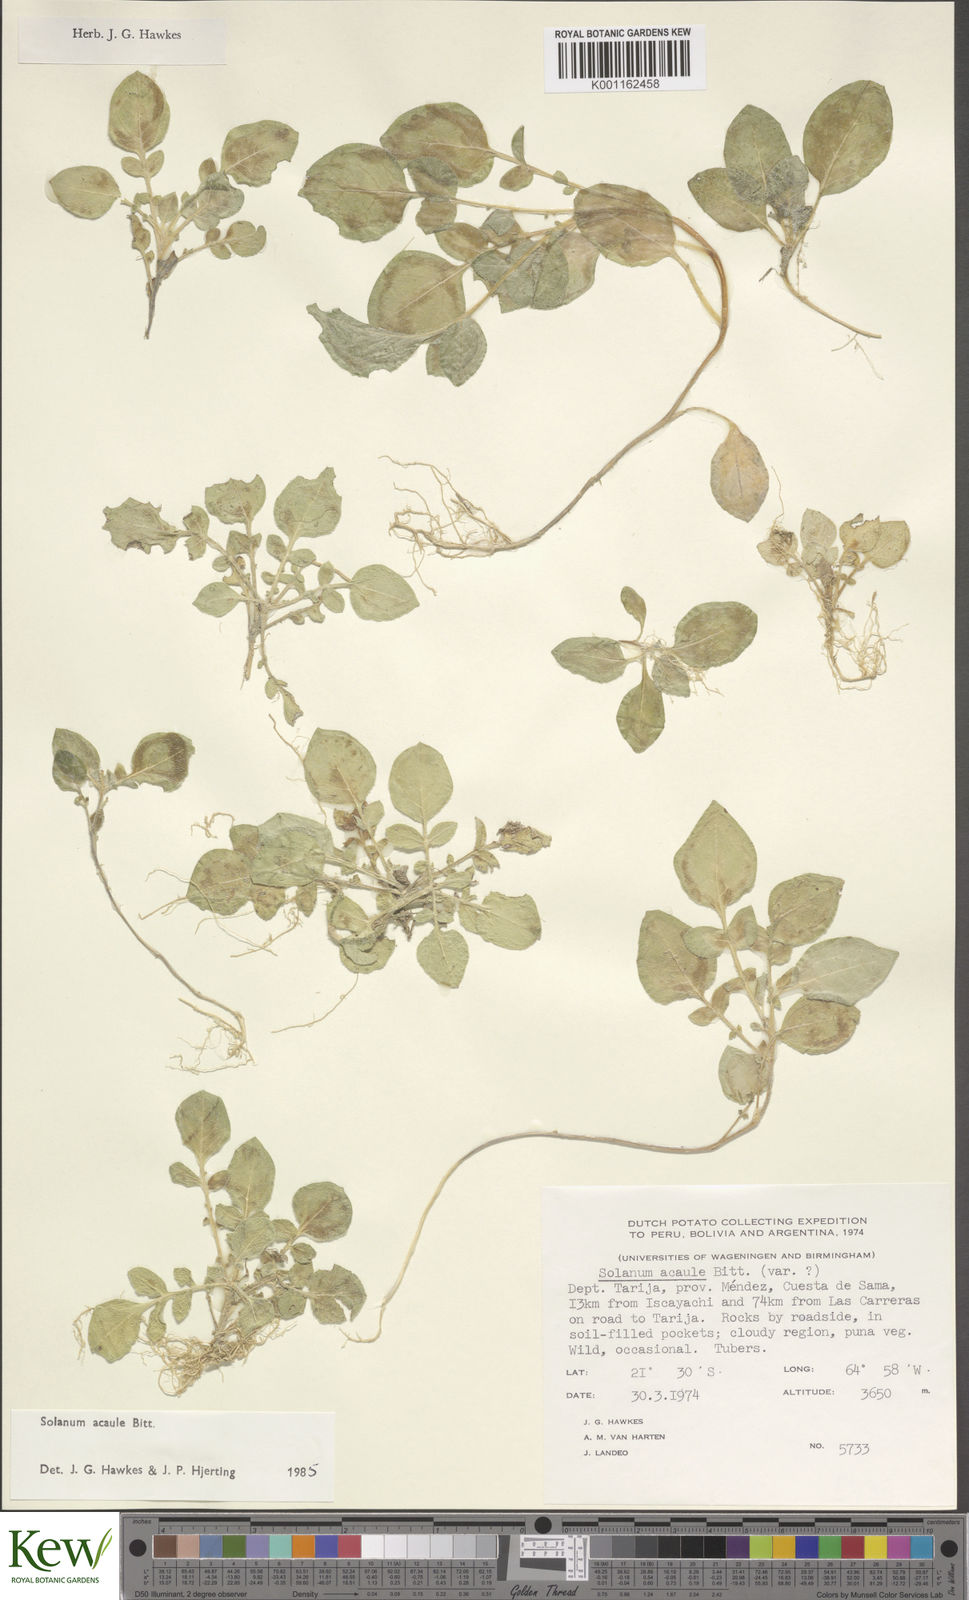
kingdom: Plantae
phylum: Tracheophyta
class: Magnoliopsida
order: Solanales
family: Solanaceae
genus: Solanum
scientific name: Solanum acaule
